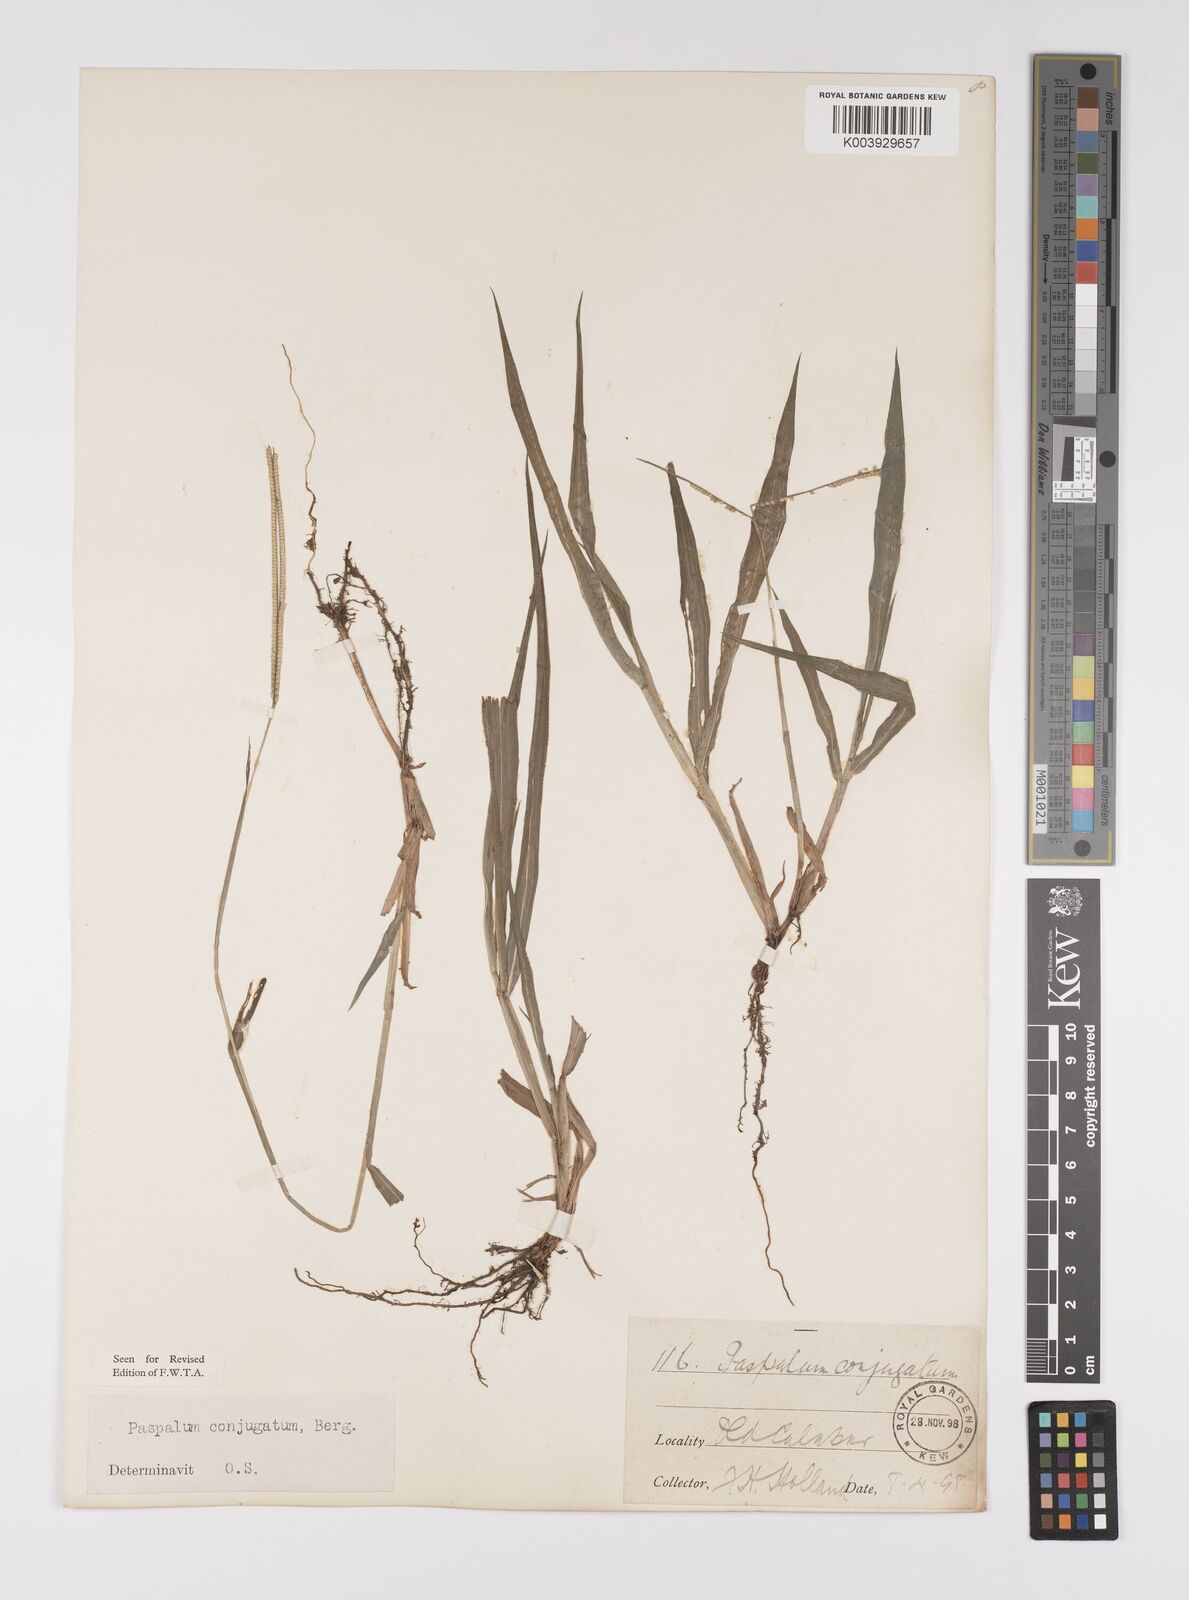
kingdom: Plantae
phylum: Tracheophyta
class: Liliopsida
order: Poales
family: Poaceae
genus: Paspalum
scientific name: Paspalum conjugatum
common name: Hilograss
